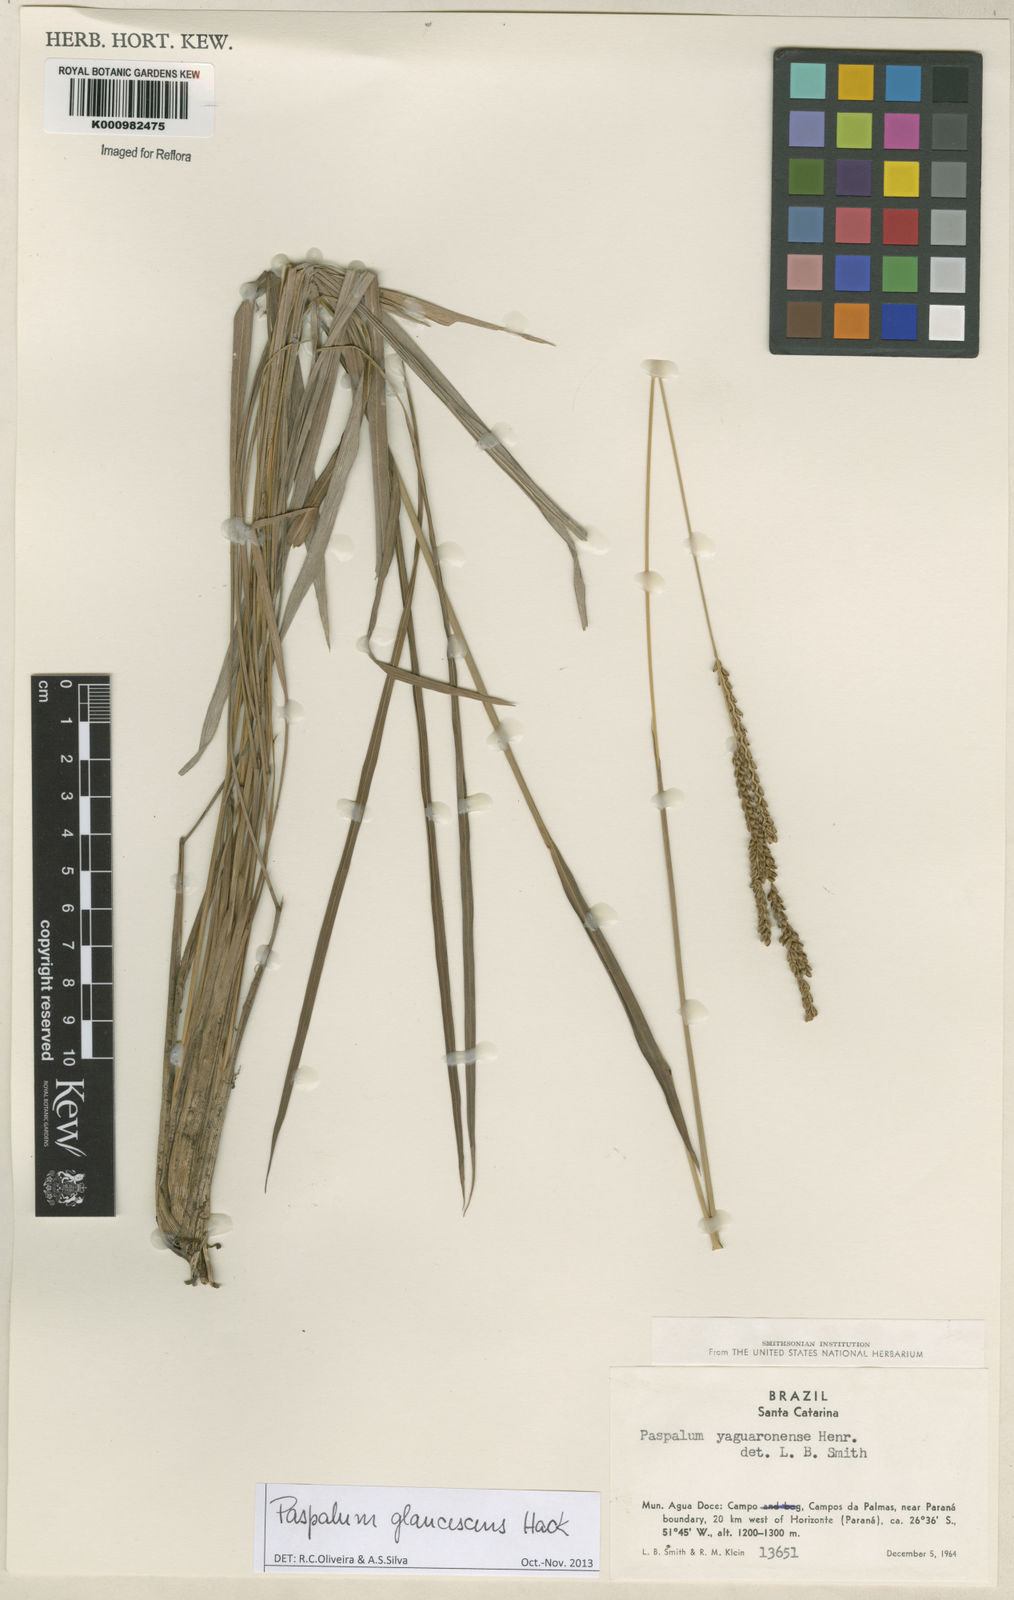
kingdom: Plantae
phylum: Tracheophyta
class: Liliopsida
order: Poales
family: Poaceae
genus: Paspalum
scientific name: Paspalum glaucescens
